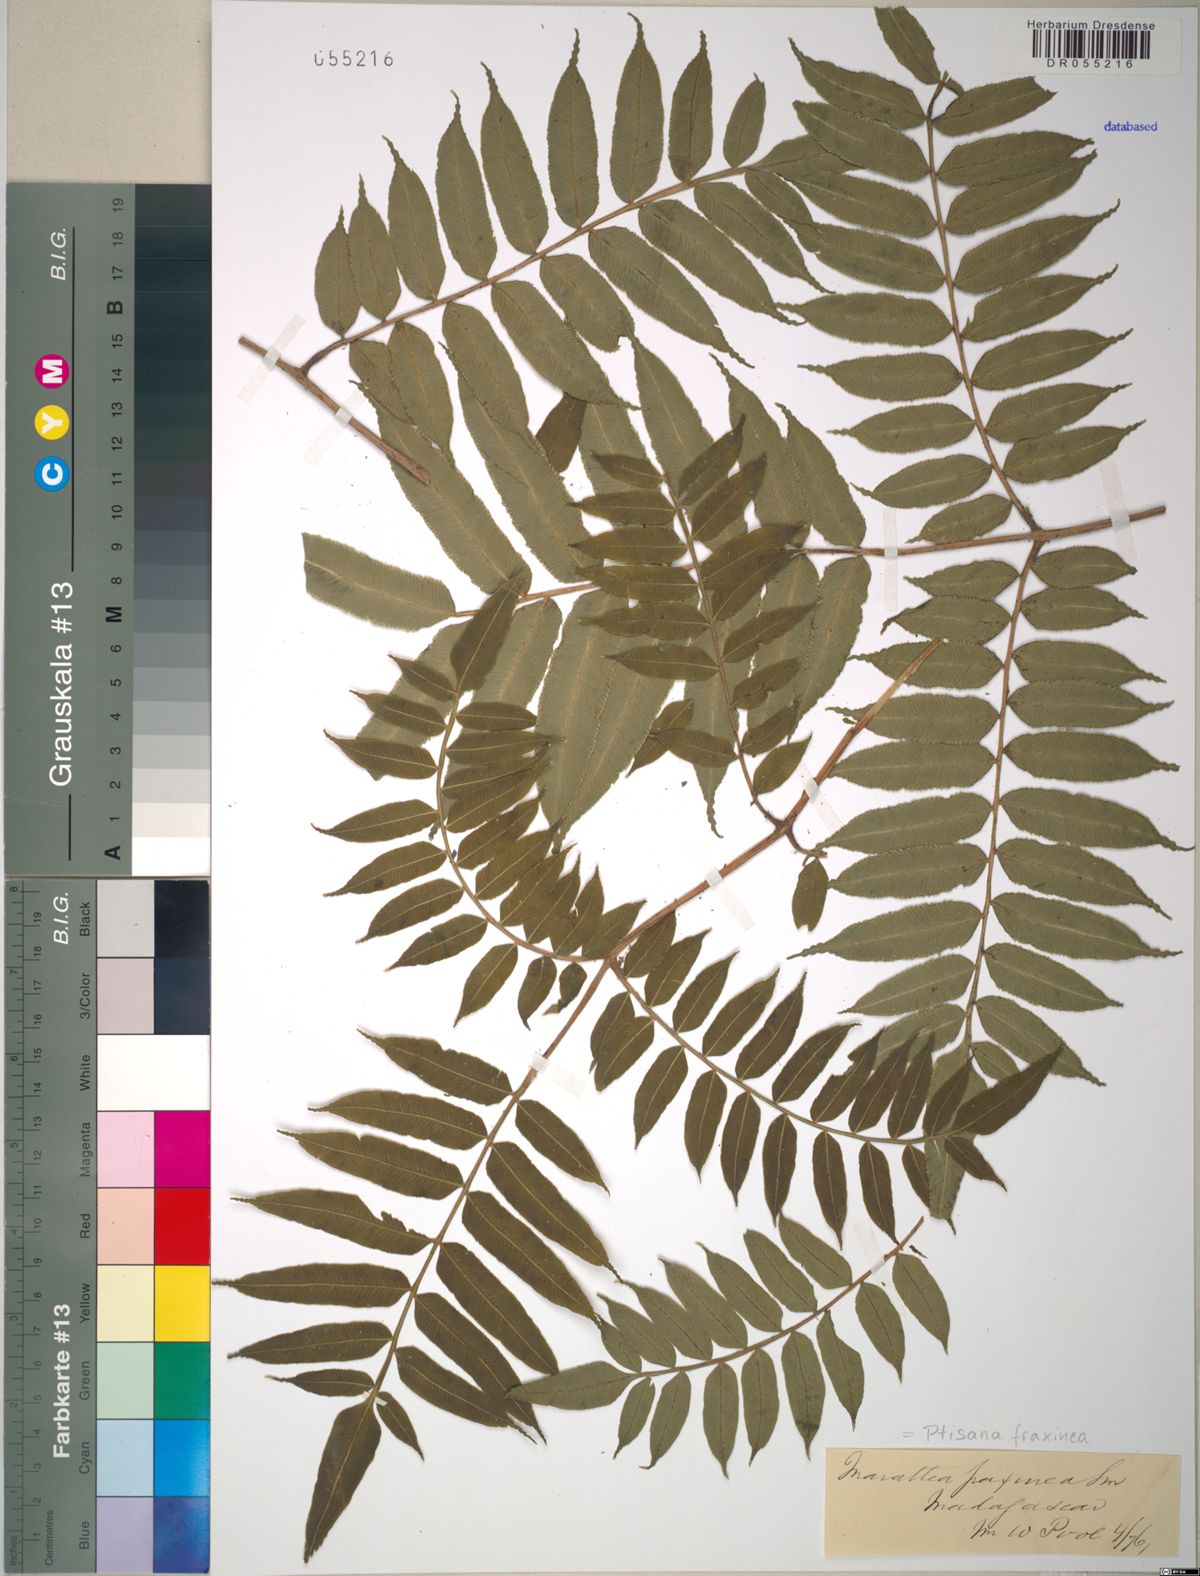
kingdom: Plantae
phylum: Tracheophyta
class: Polypodiopsida
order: Marattiales
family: Marattiaceae
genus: Ptisana
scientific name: Ptisana fraxinea
